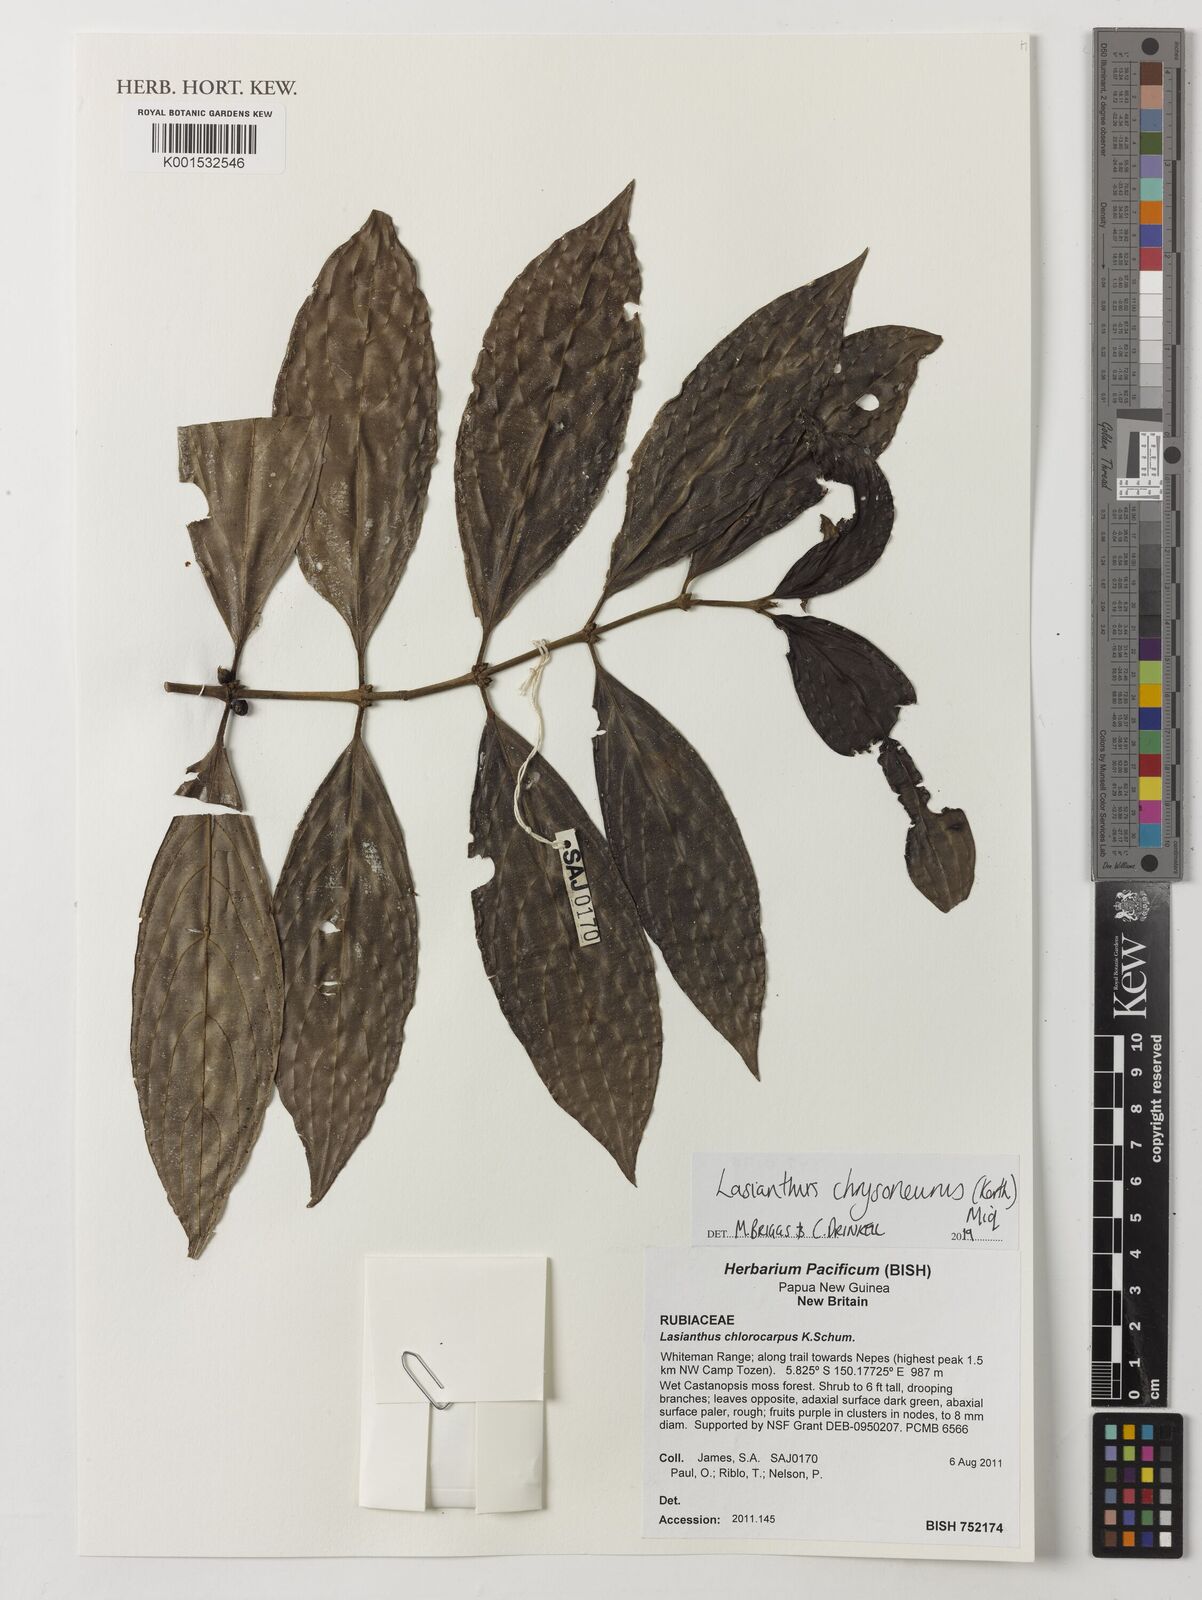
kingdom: Plantae
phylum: Tracheophyta
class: Magnoliopsida
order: Gentianales
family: Rubiaceae
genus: Lasianthus
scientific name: Lasianthus chrysoneurus
